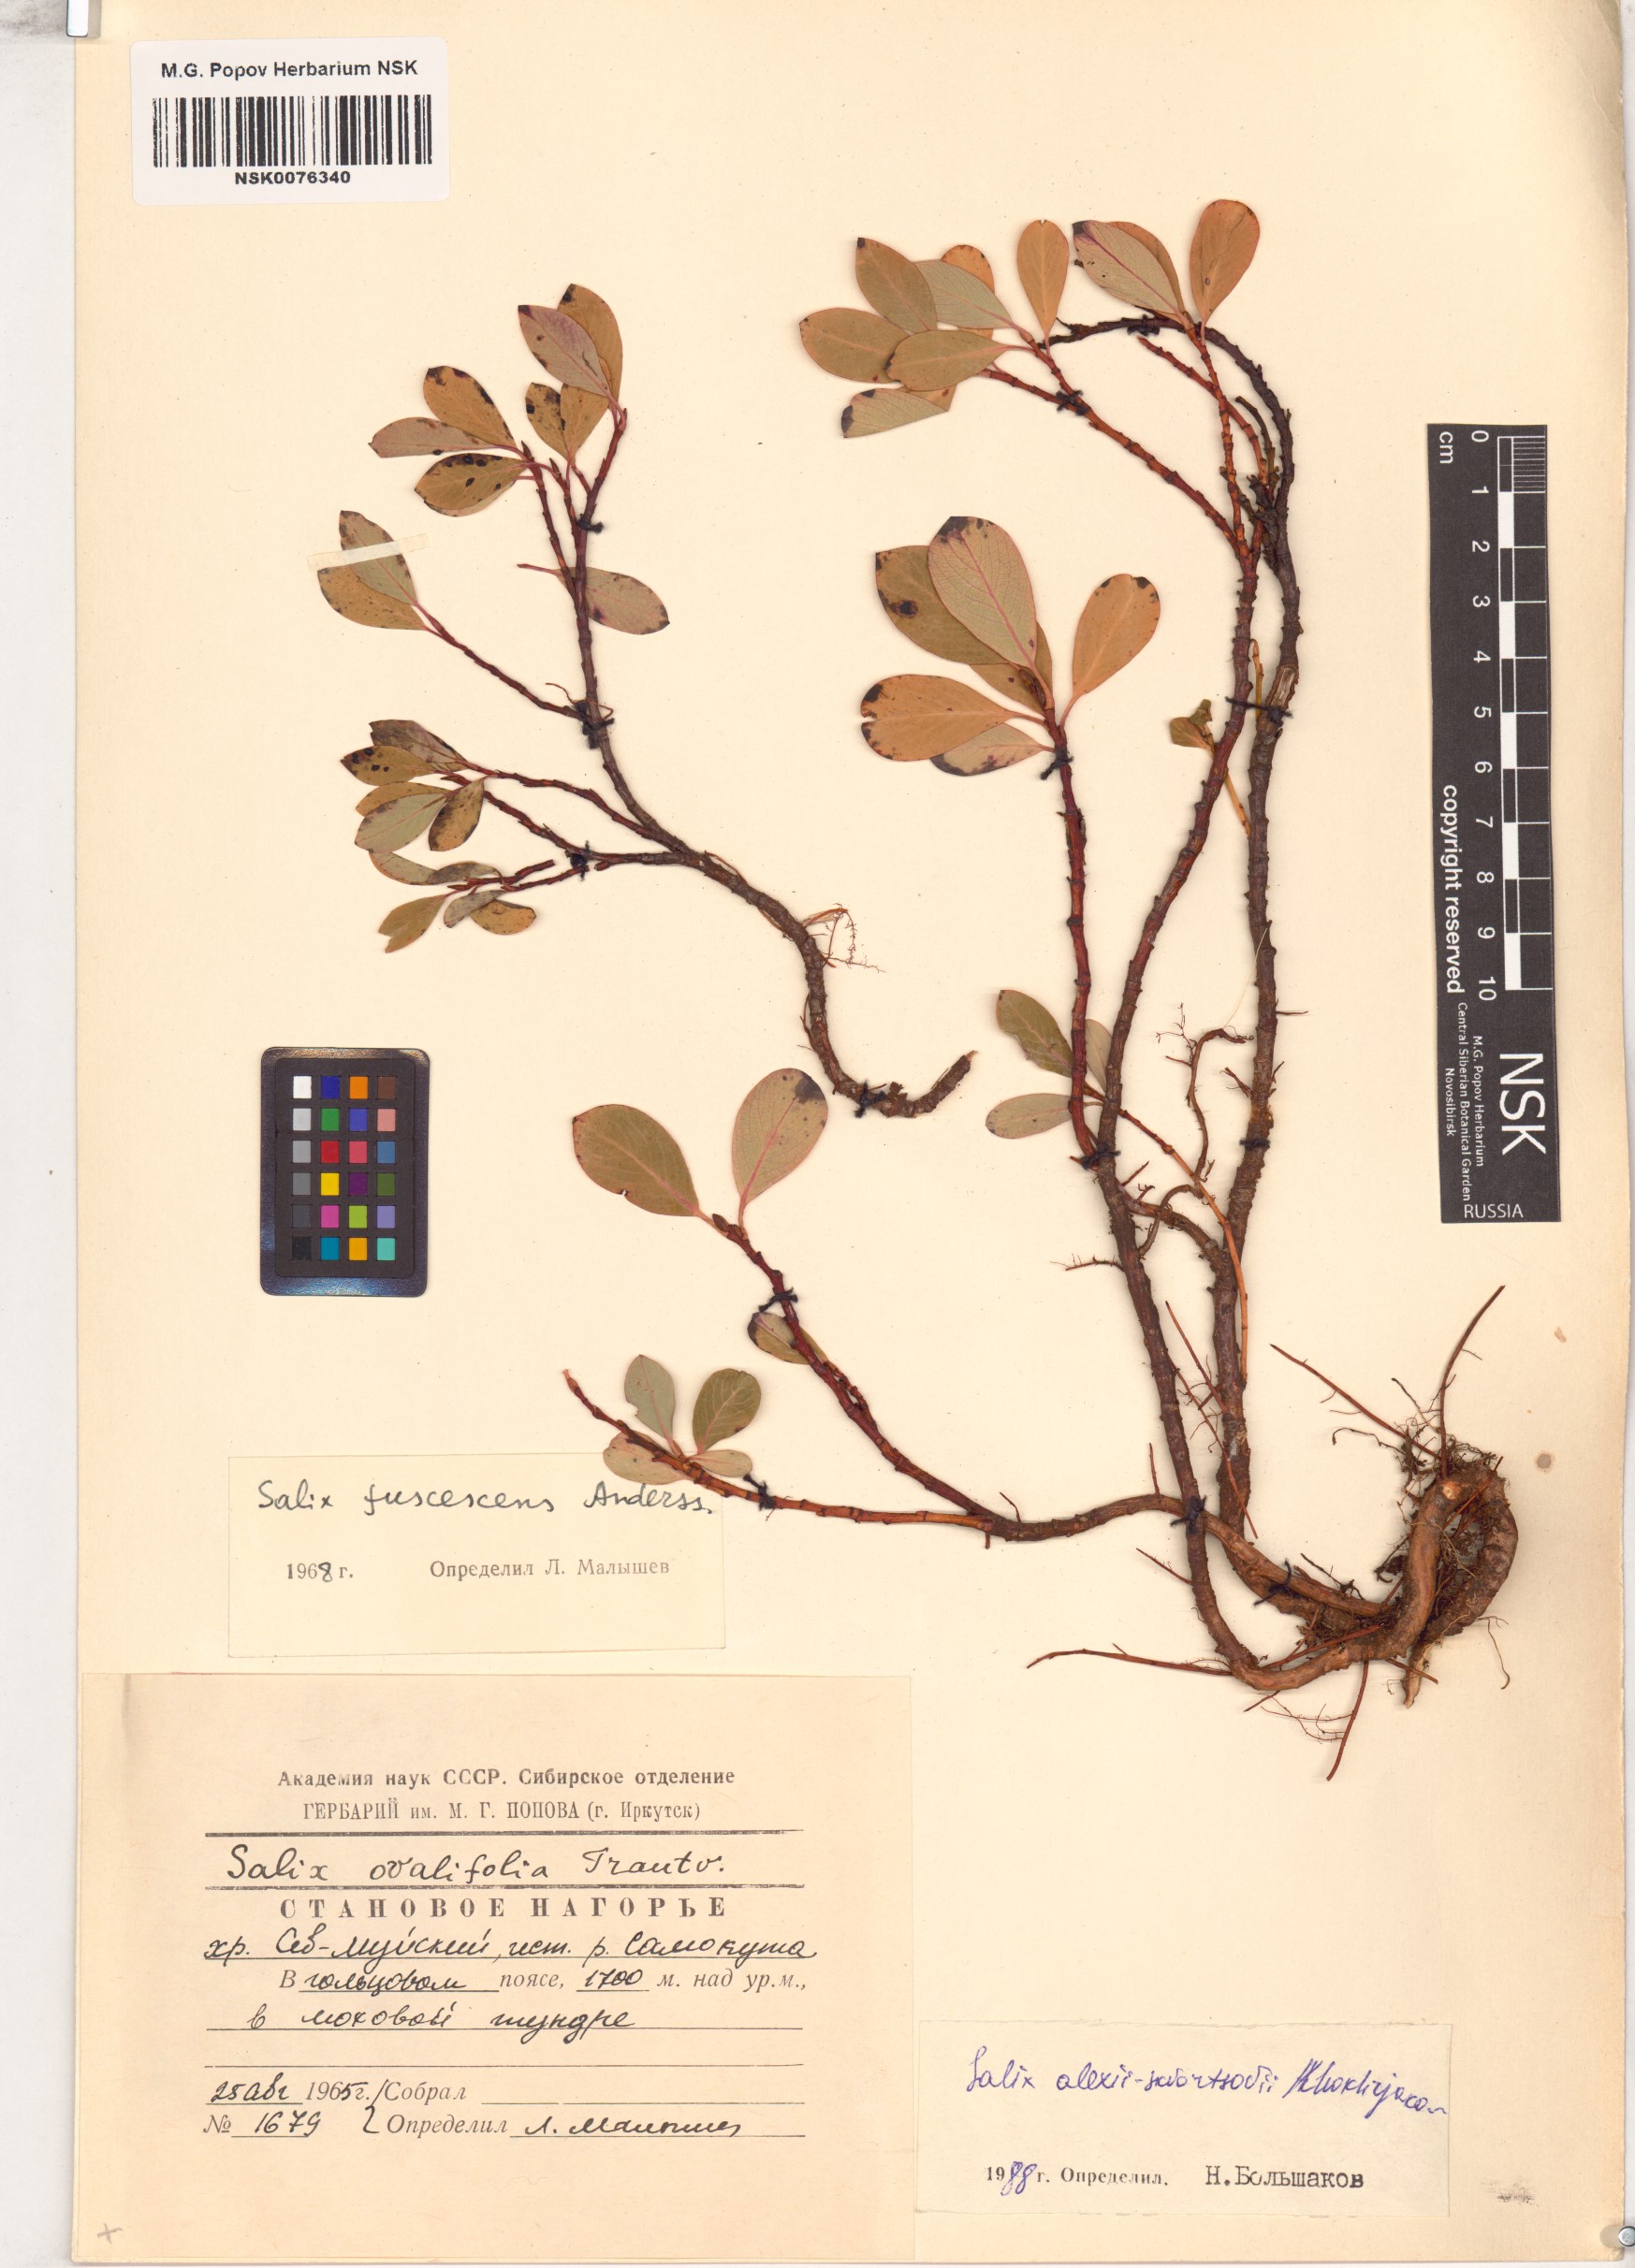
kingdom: Plantae
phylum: Tracheophyta
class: Magnoliopsida
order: Malpighiales
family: Salicaceae
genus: Salix
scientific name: Salix alexii-skvortzovii
